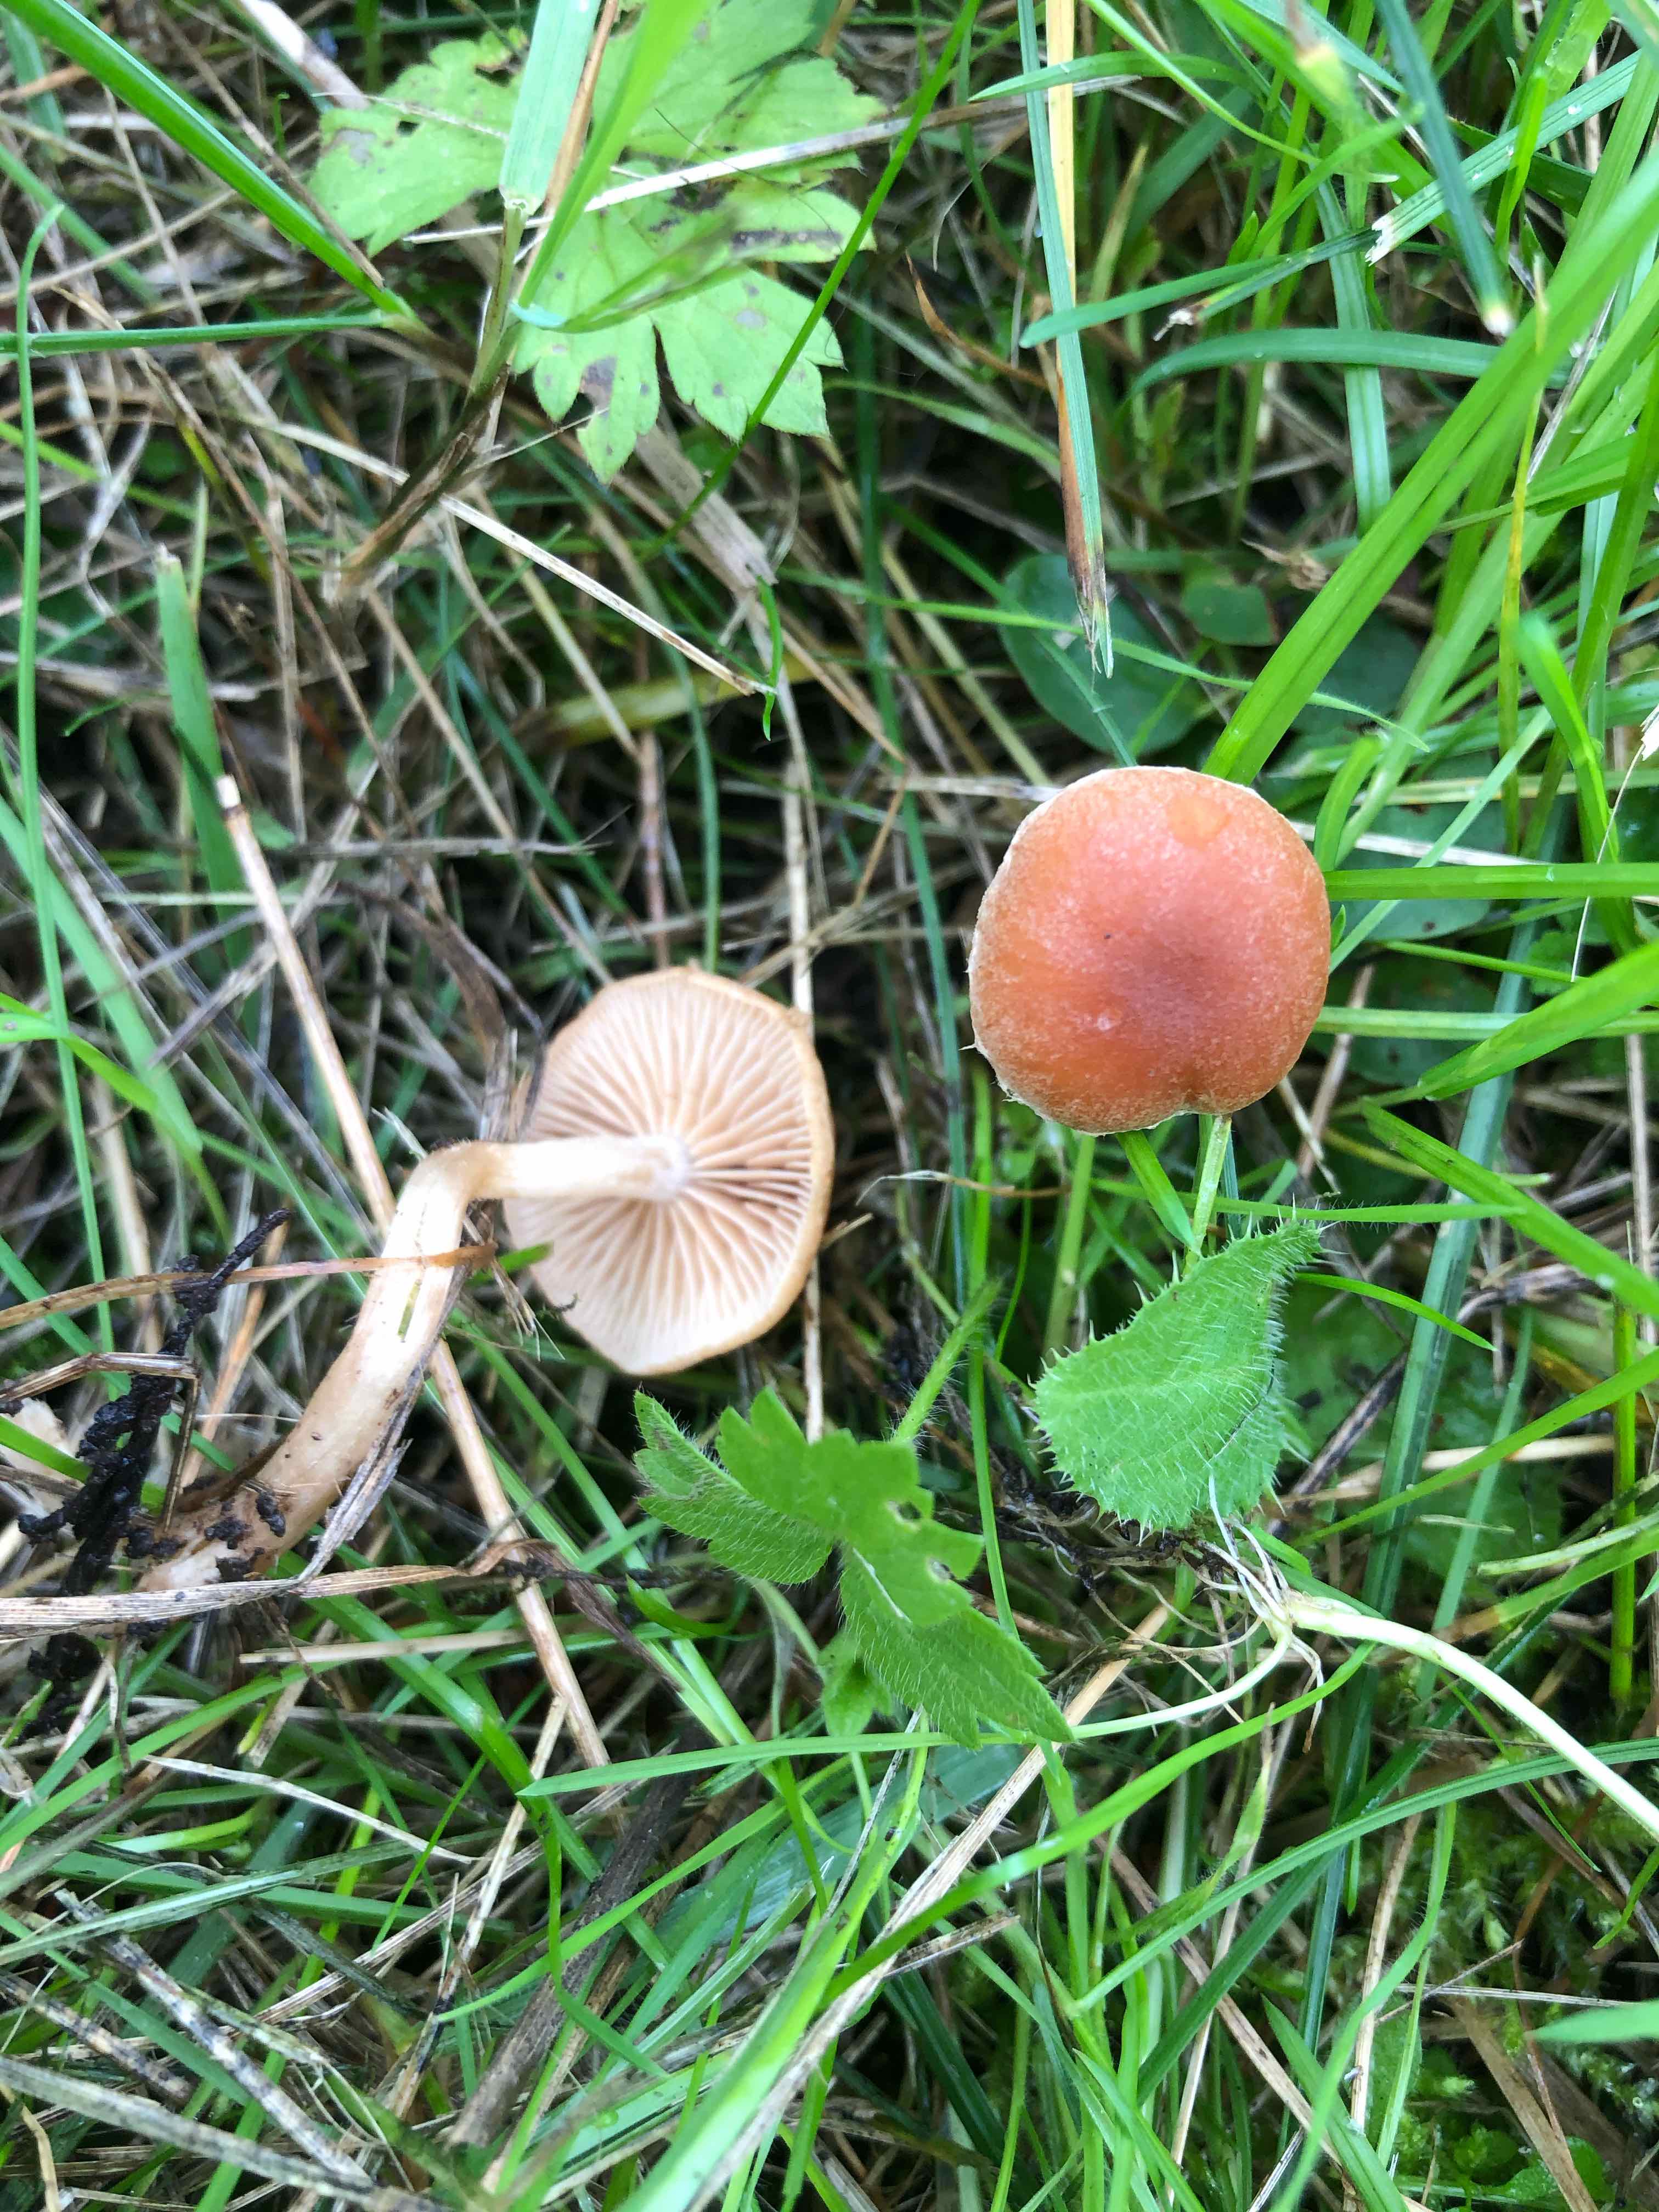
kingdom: Fungi
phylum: Basidiomycota
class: Agaricomycetes
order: Agaricales
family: Tubariaceae
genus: Tubaria
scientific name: Tubaria furfuracea
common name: kliddet fnughat
